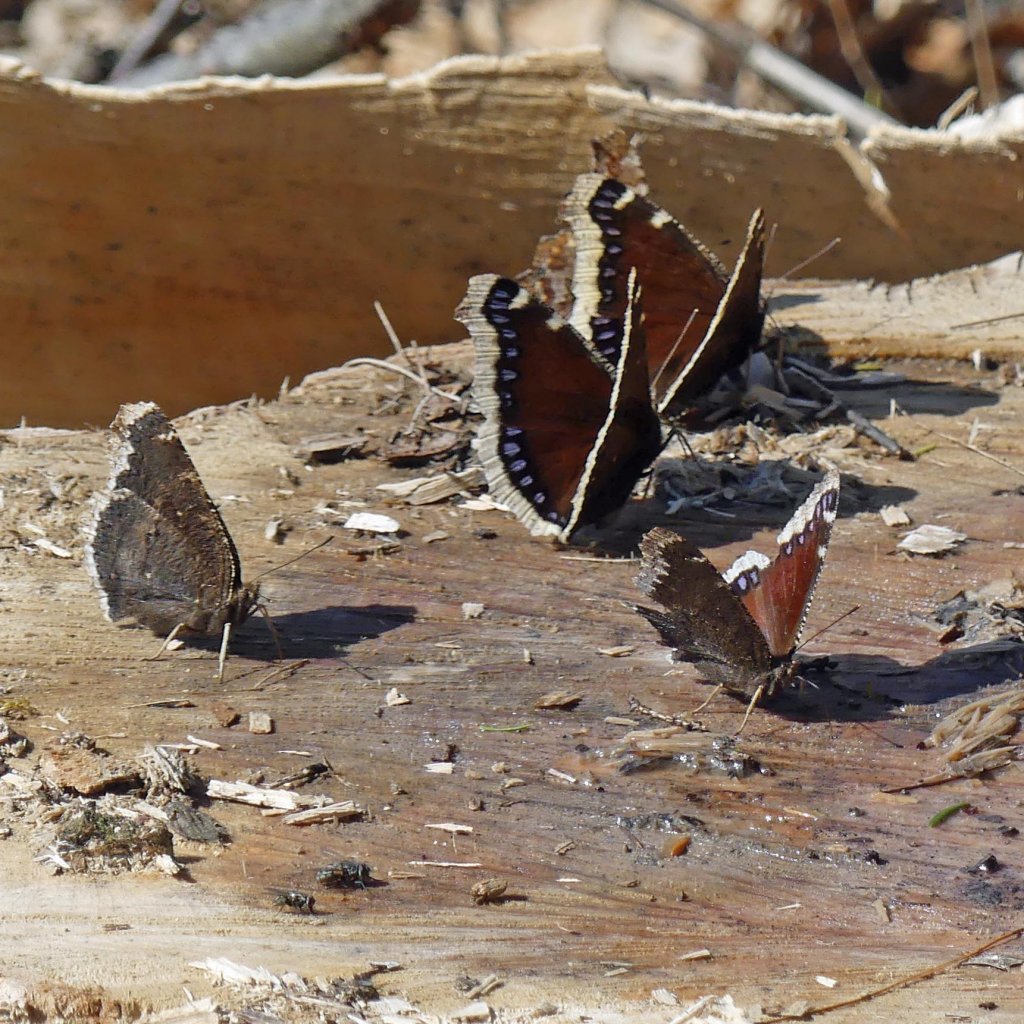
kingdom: Animalia
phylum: Arthropoda
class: Insecta
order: Lepidoptera
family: Nymphalidae
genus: Nymphalis
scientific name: Nymphalis antiopa
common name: Mourning Cloak
